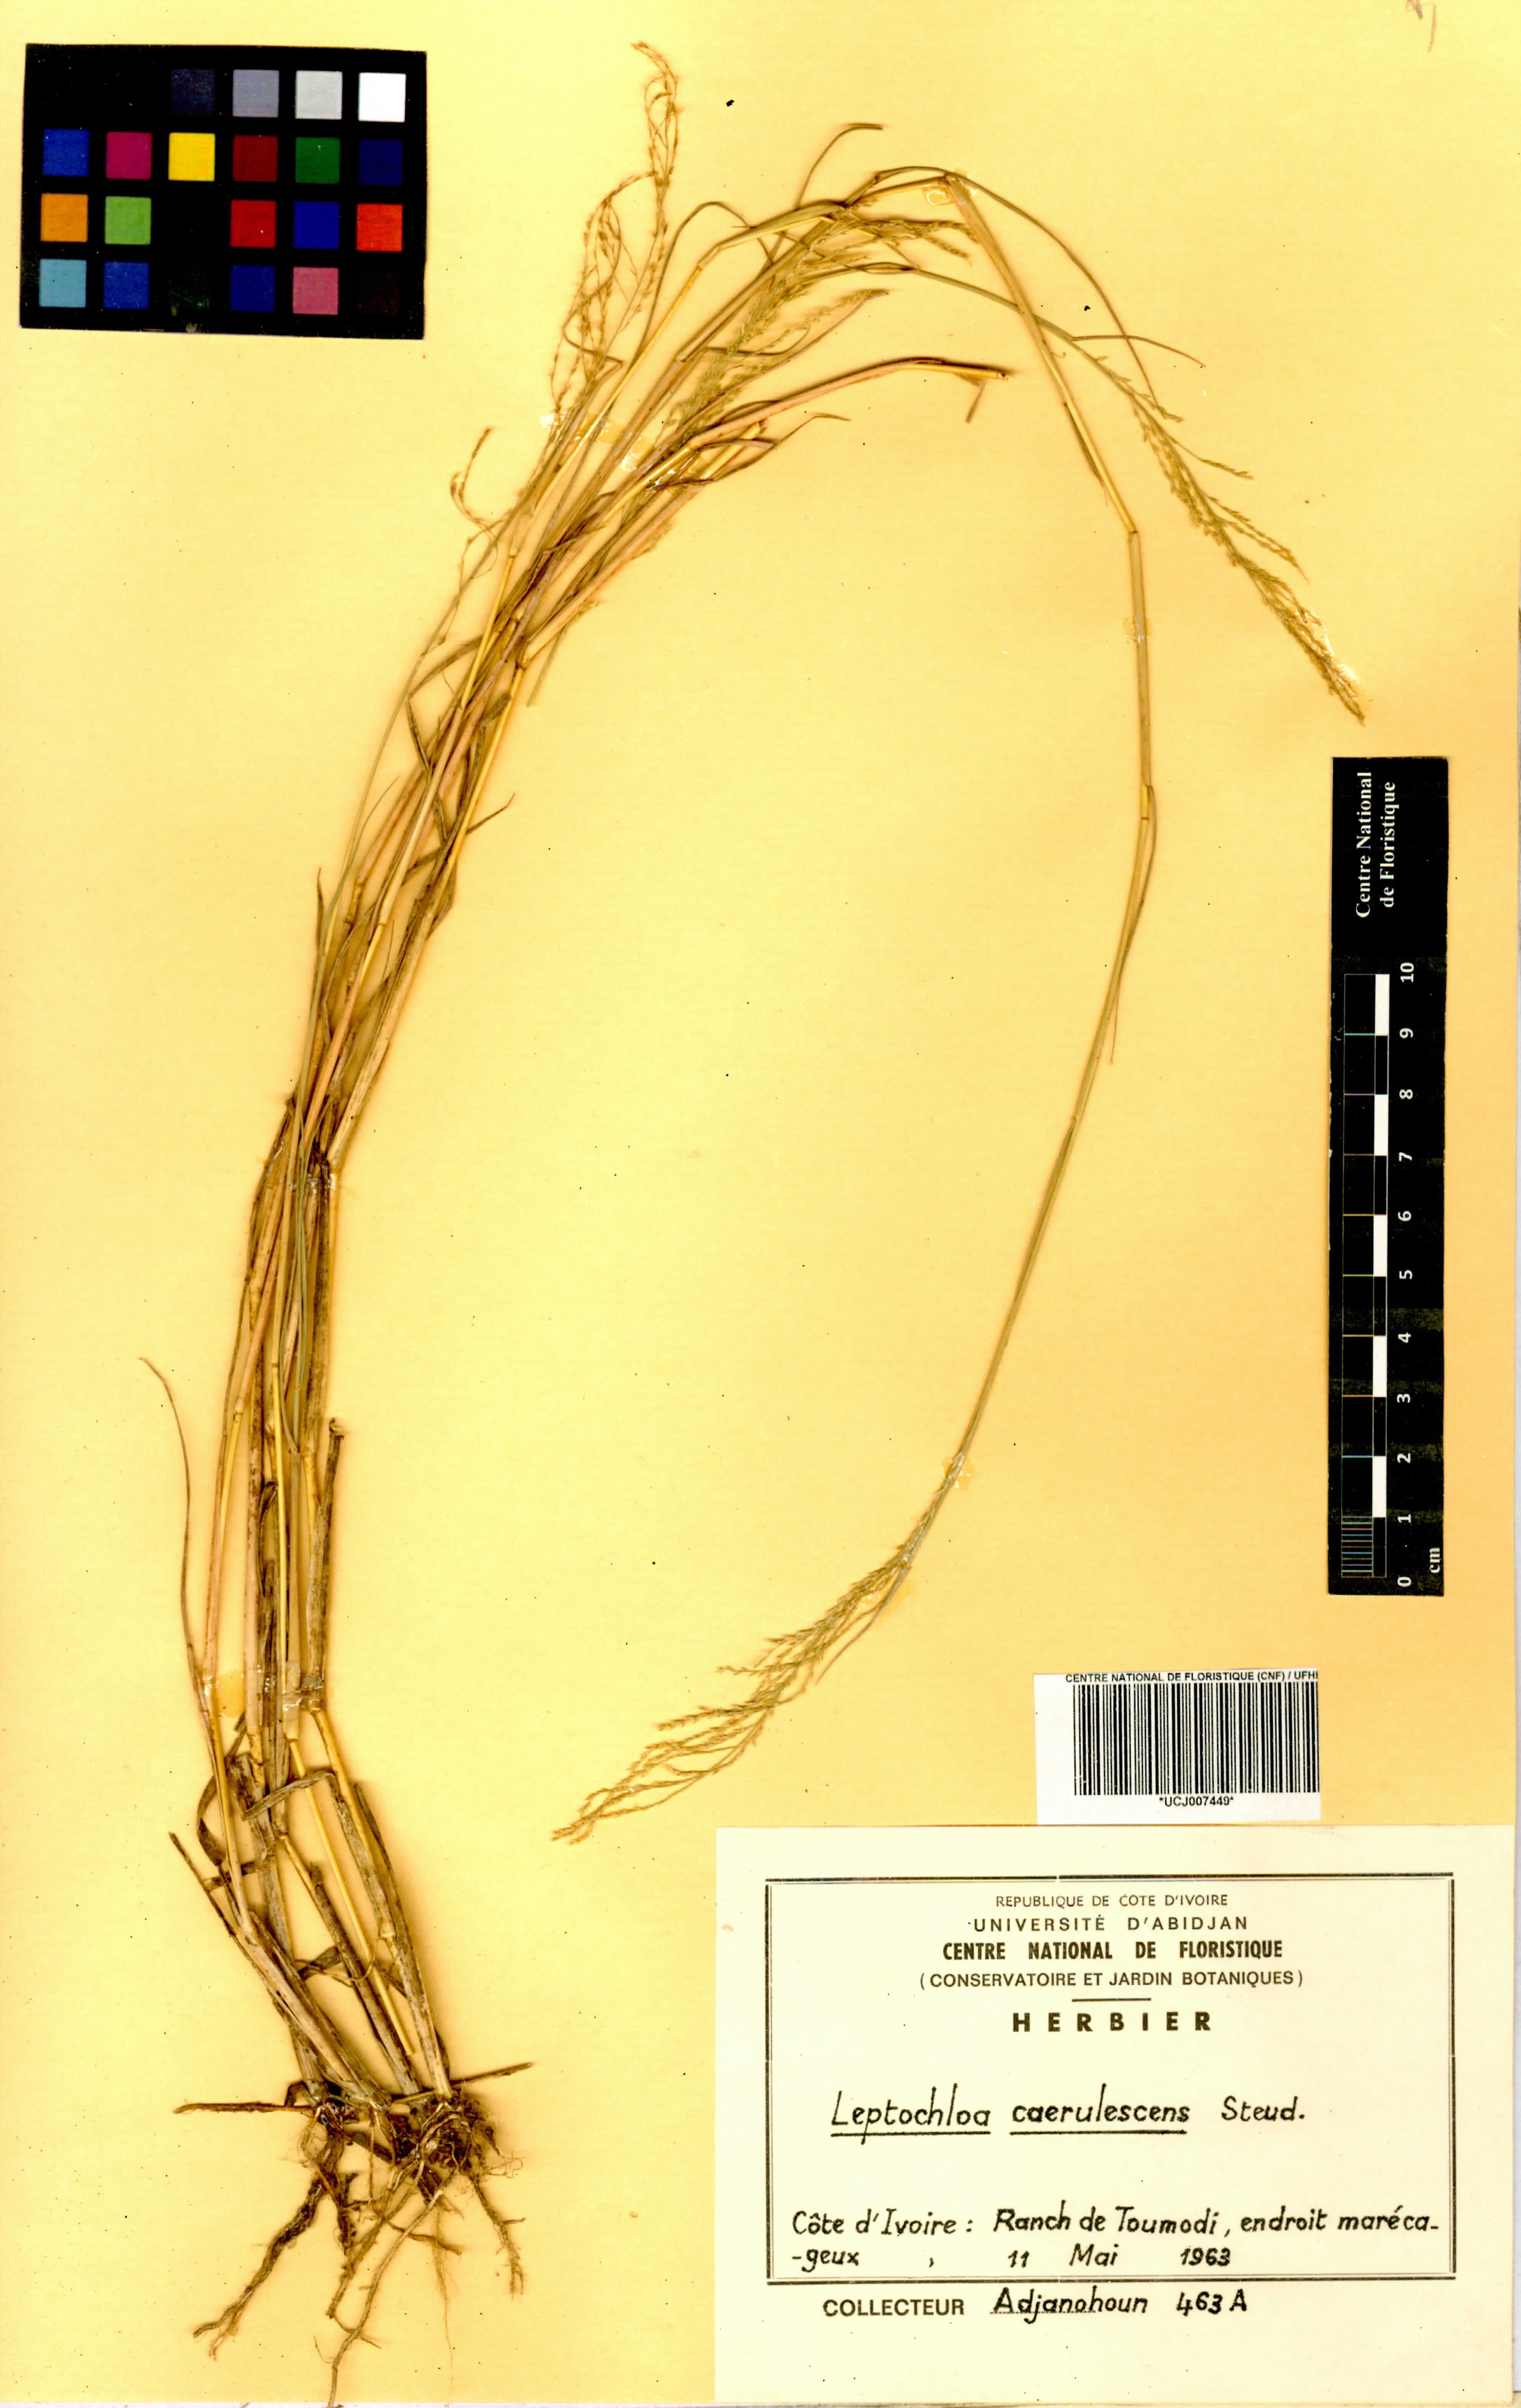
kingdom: Plantae
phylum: Tracheophyta
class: Liliopsida
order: Poales
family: Poaceae
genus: Leptochloa
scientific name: Leptochloa caerulescens
